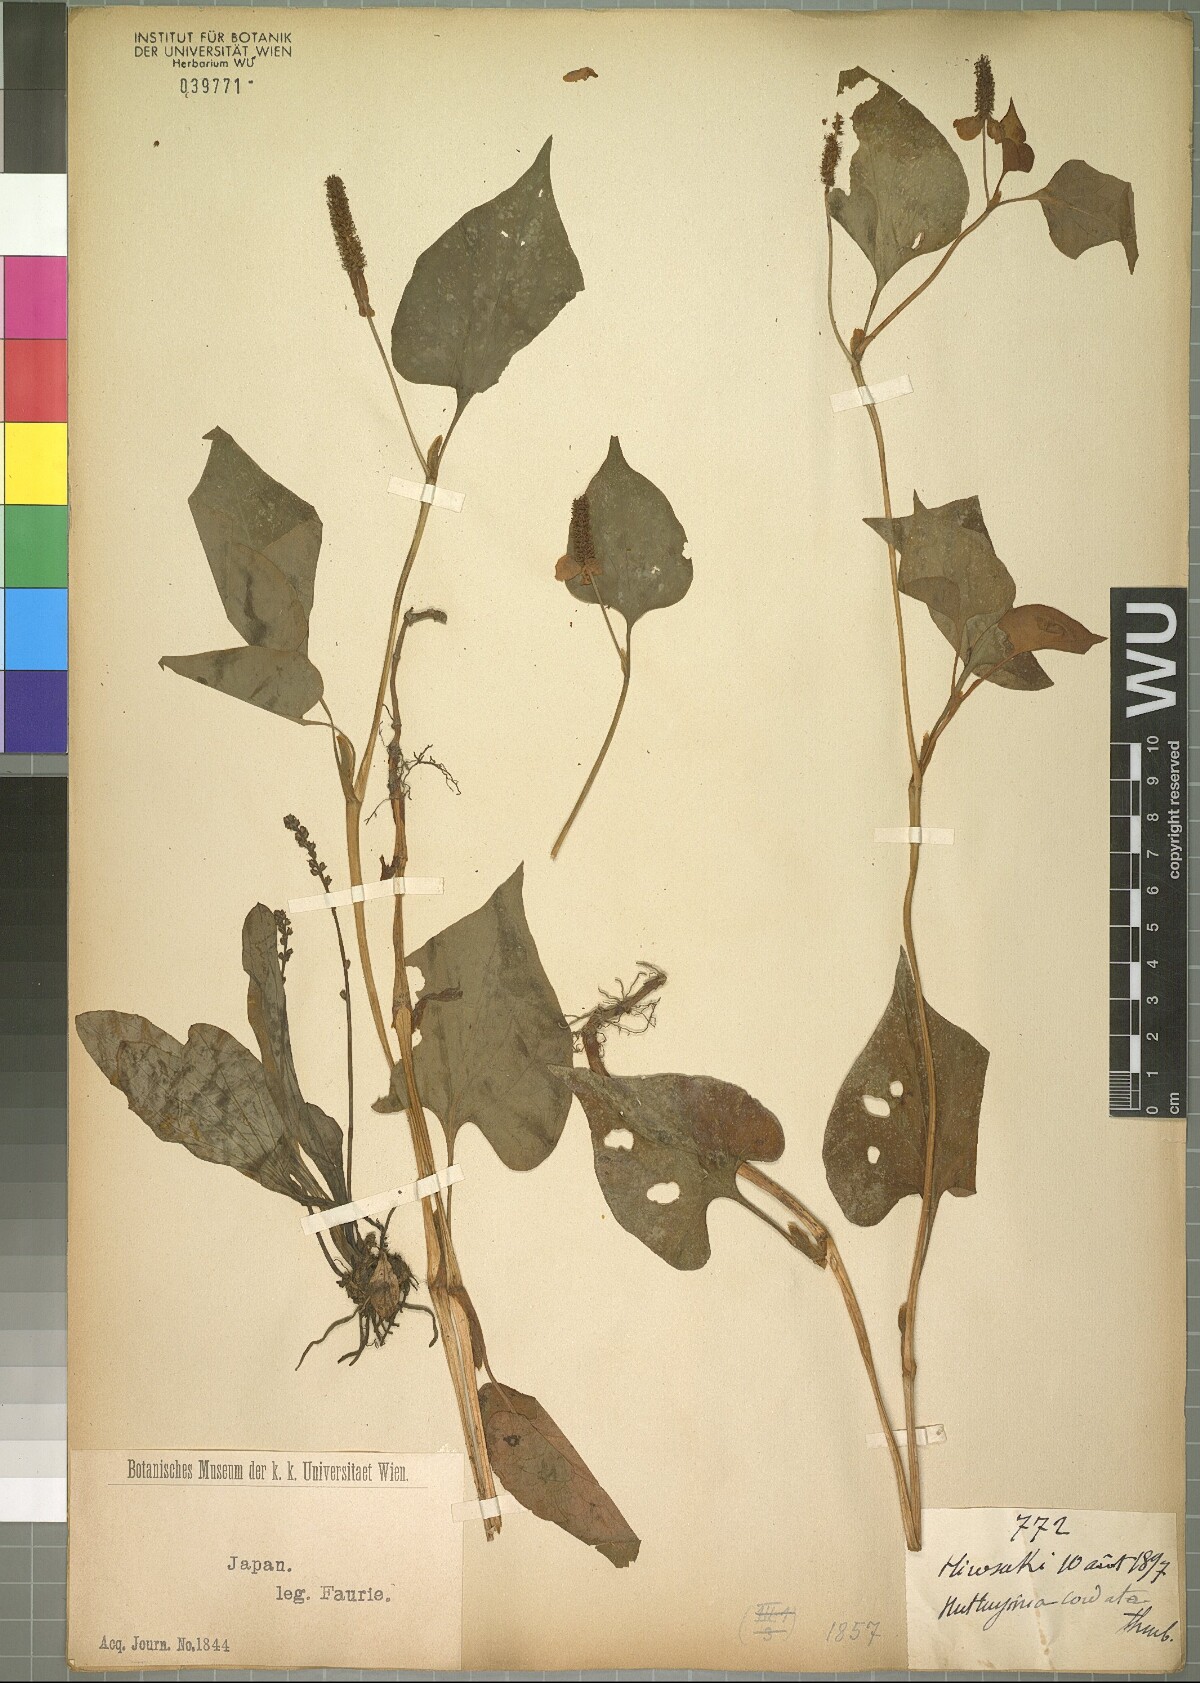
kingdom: Plantae
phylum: Tracheophyta
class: Magnoliopsida
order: Piperales
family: Saururaceae
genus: Houttuynia
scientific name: Houttuynia cordata
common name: Chameleon
